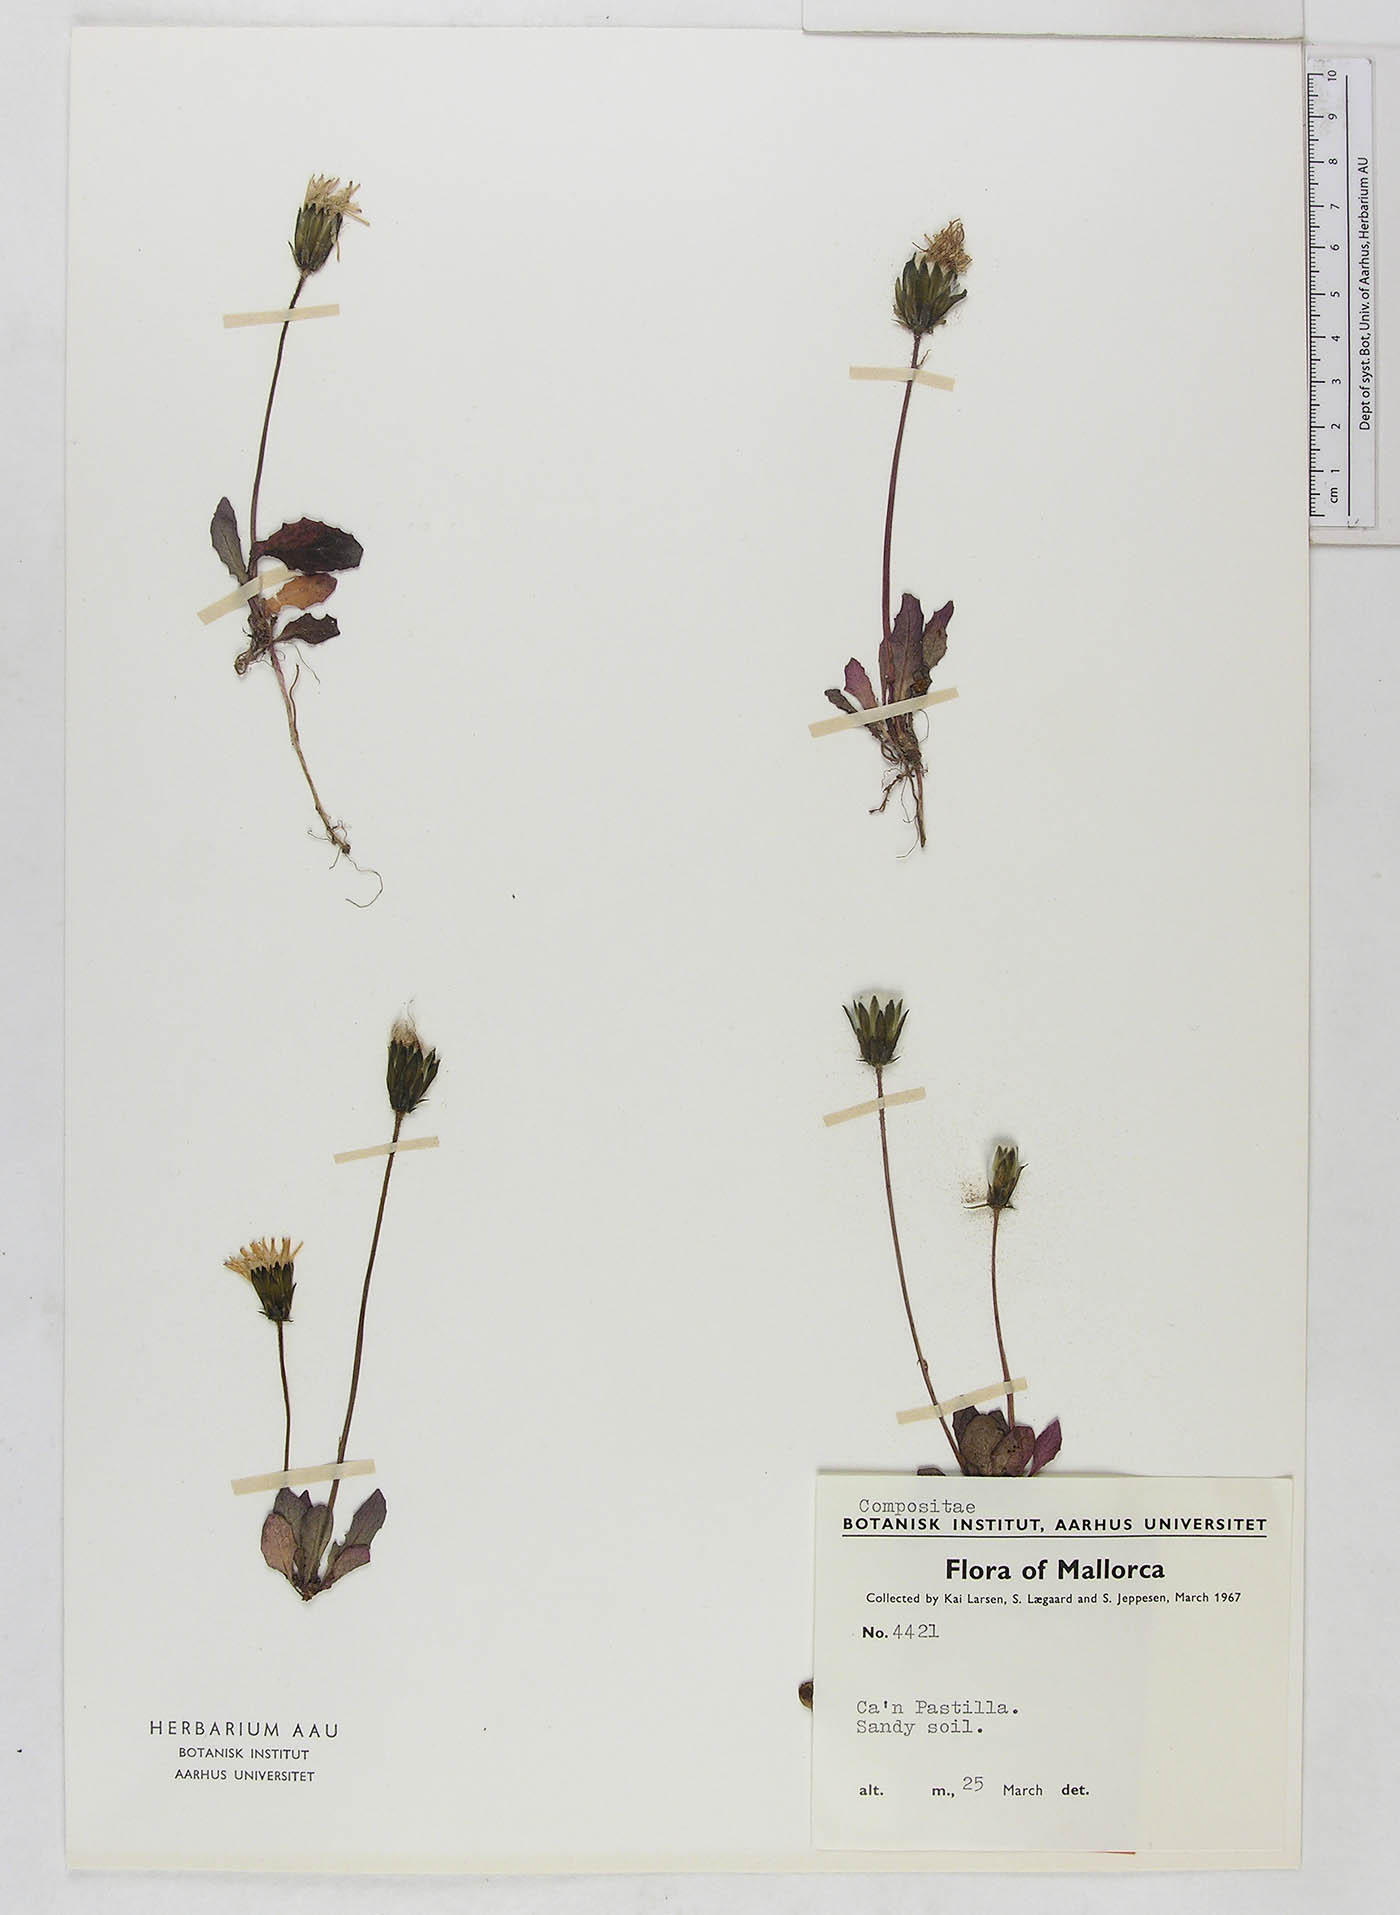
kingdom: Plantae
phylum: Tracheophyta
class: Magnoliopsida
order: Asterales
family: Asteraceae
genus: Crepis
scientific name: Crepis
